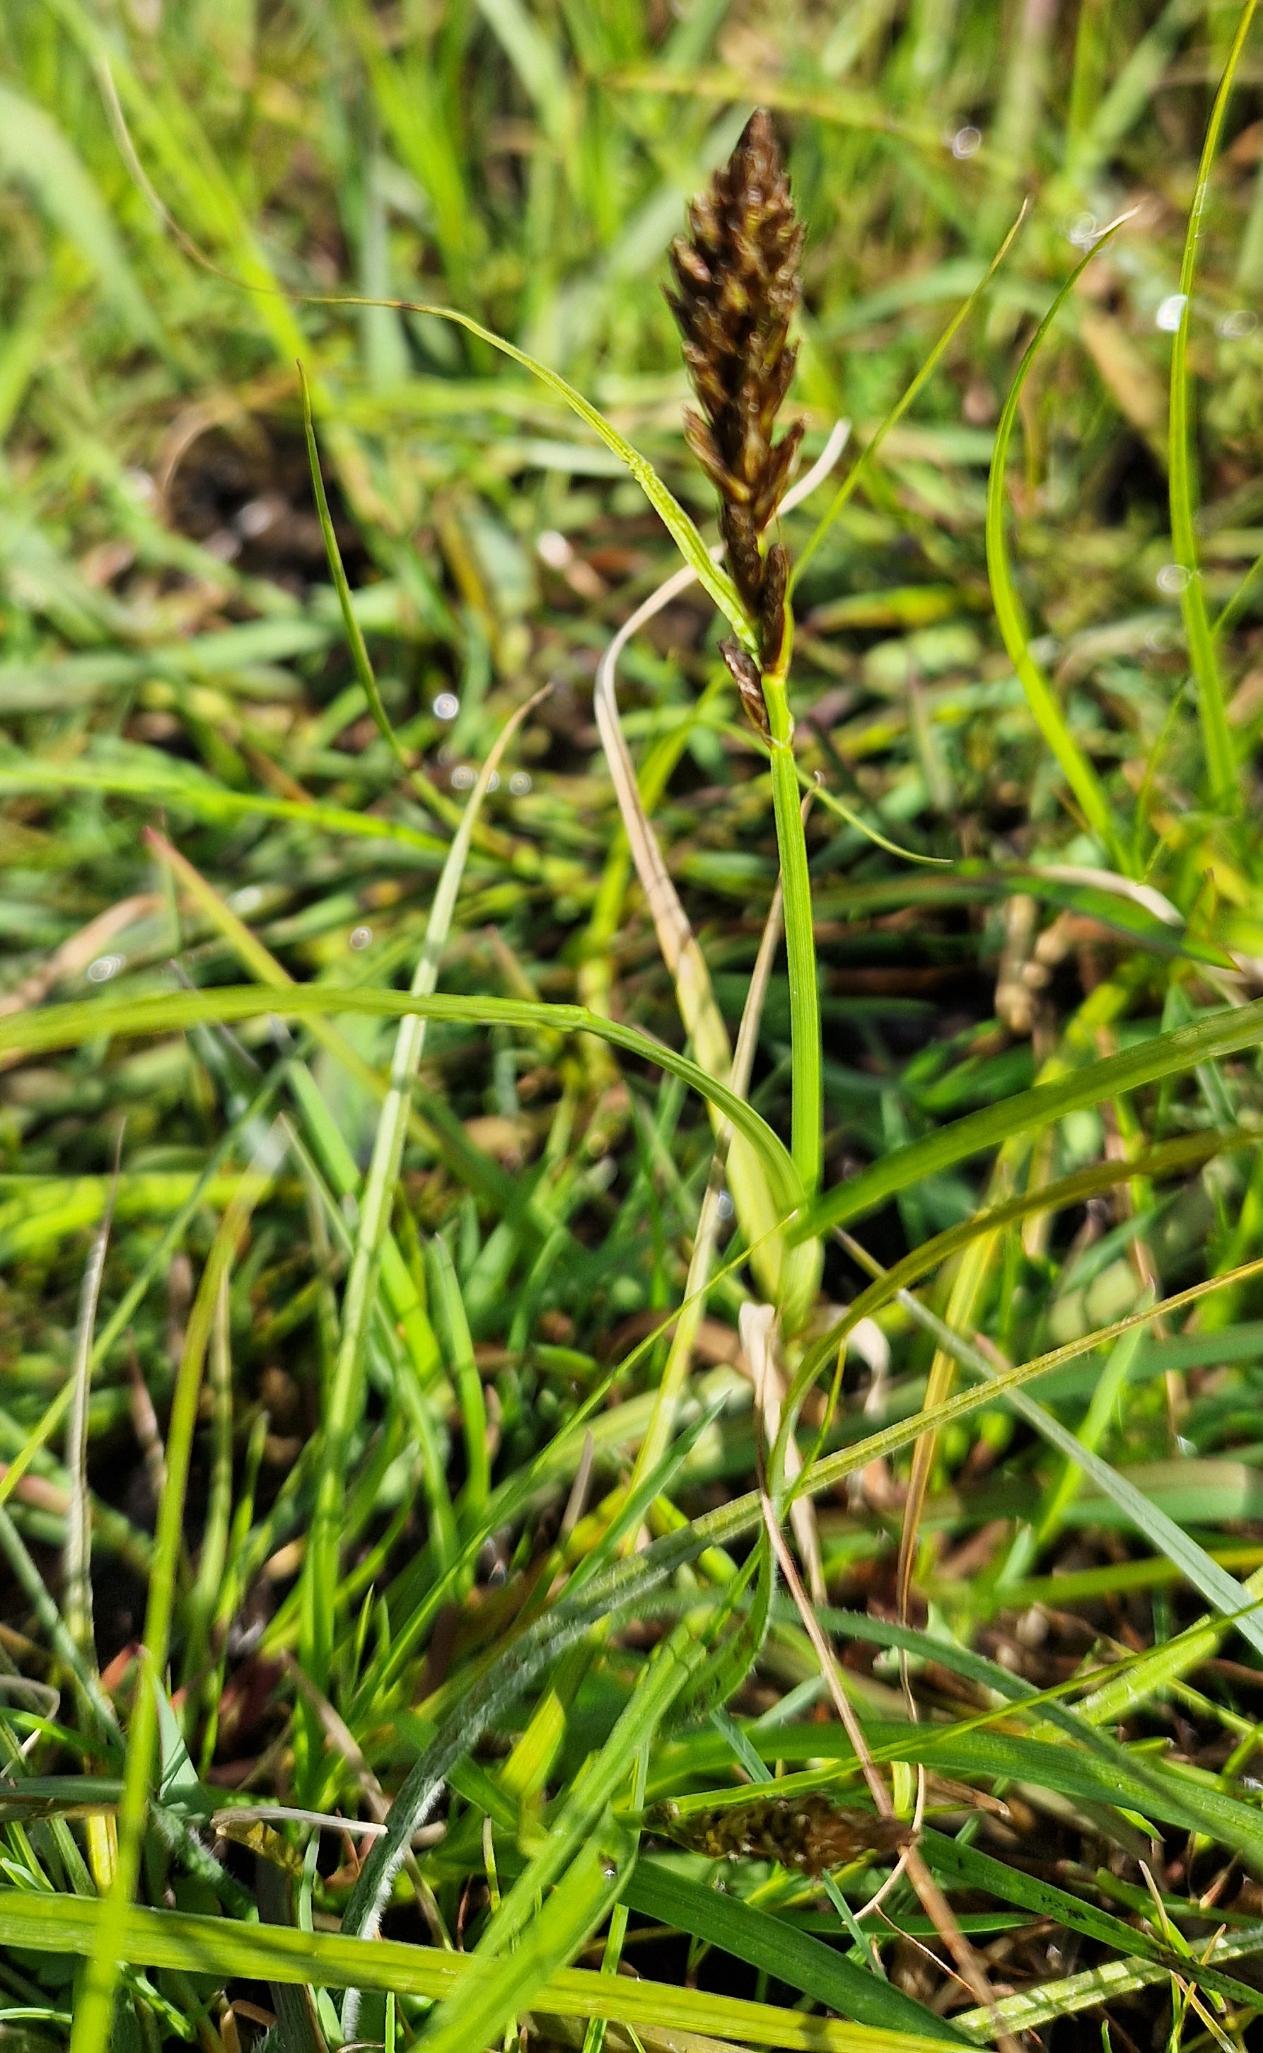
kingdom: Plantae
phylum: Tracheophyta
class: Liliopsida
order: Poales
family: Cyperaceae
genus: Carex
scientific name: Carex disticha
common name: Toradet star
